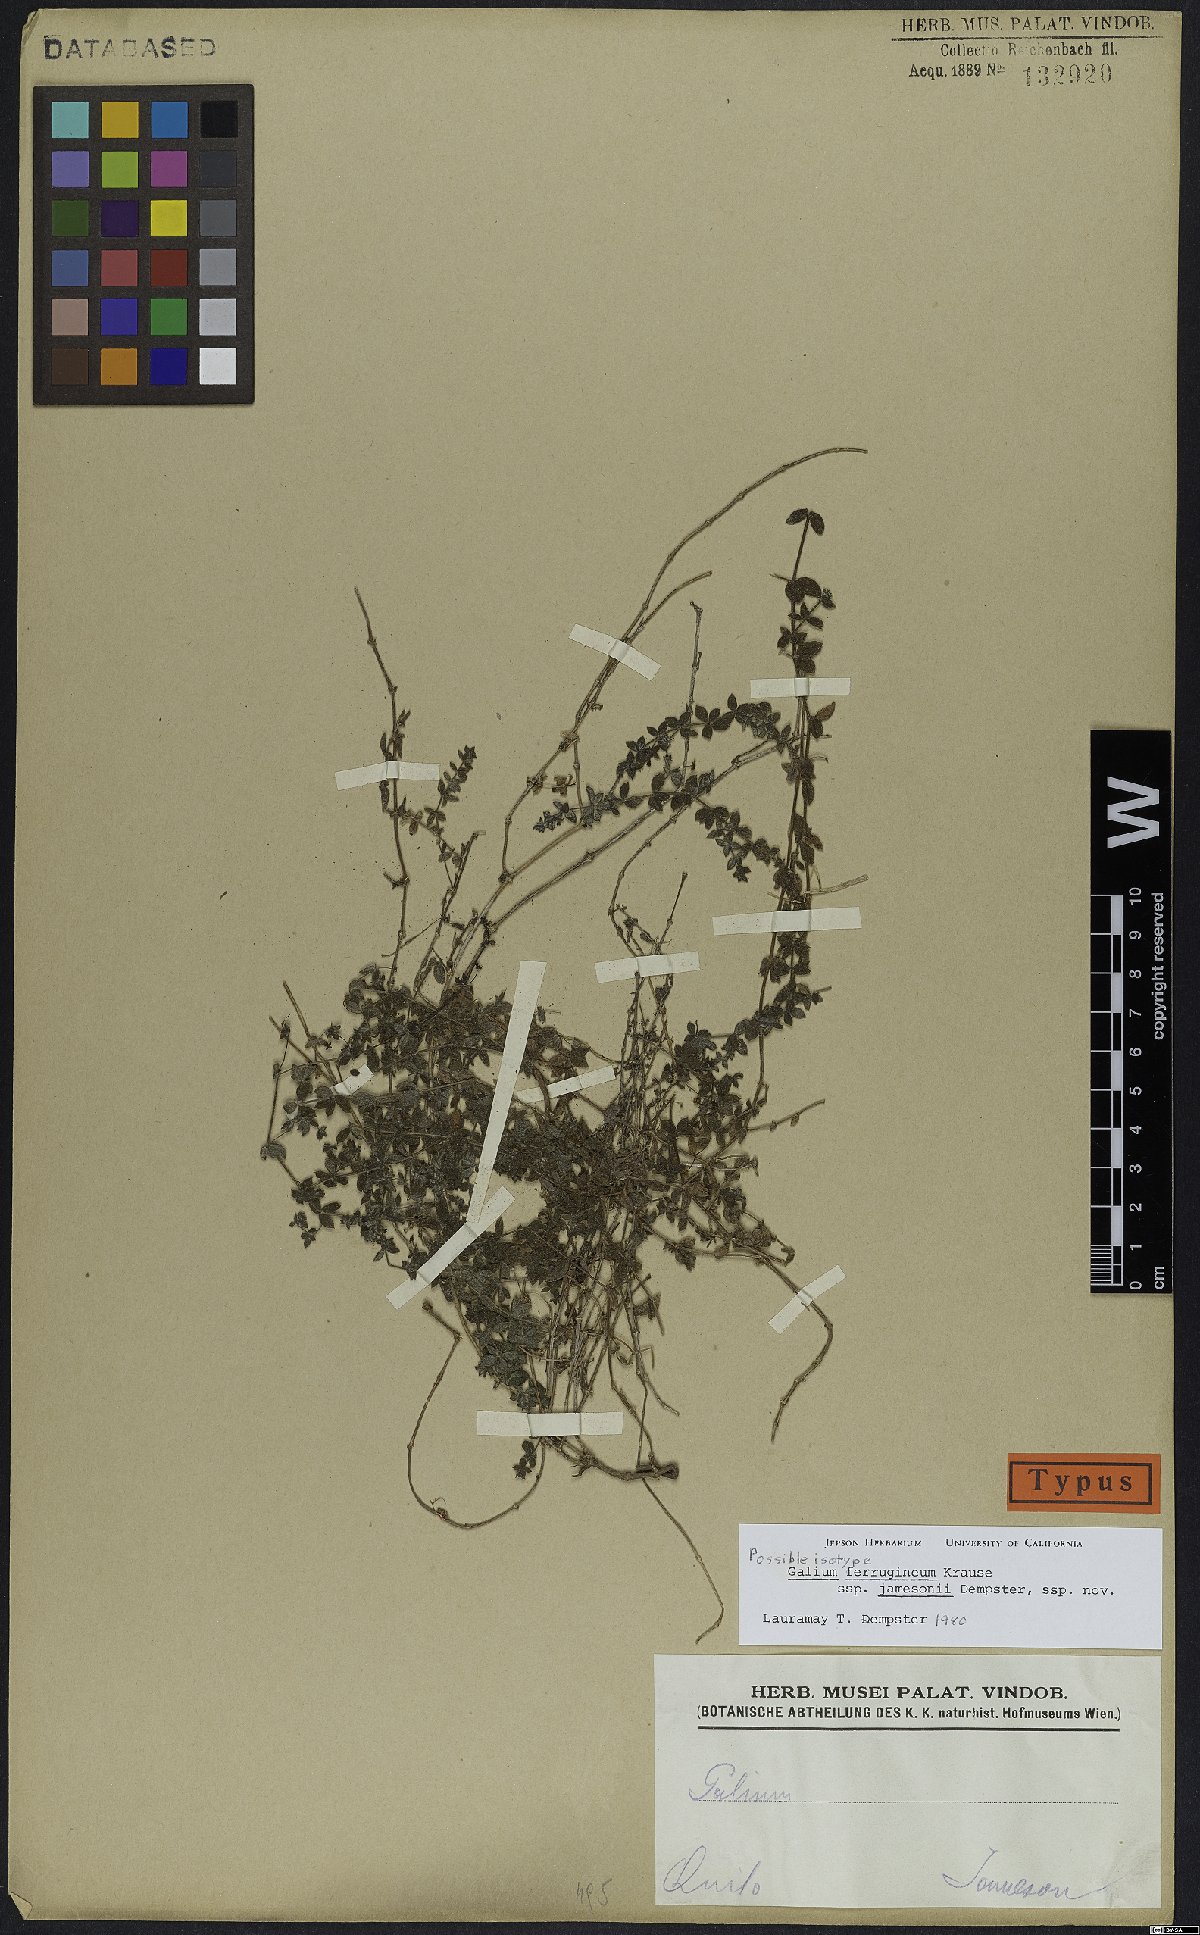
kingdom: Plantae
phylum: Tracheophyta
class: Magnoliopsida
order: Gentianales
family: Rubiaceae
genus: Galium
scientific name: Galium ferrugineum
